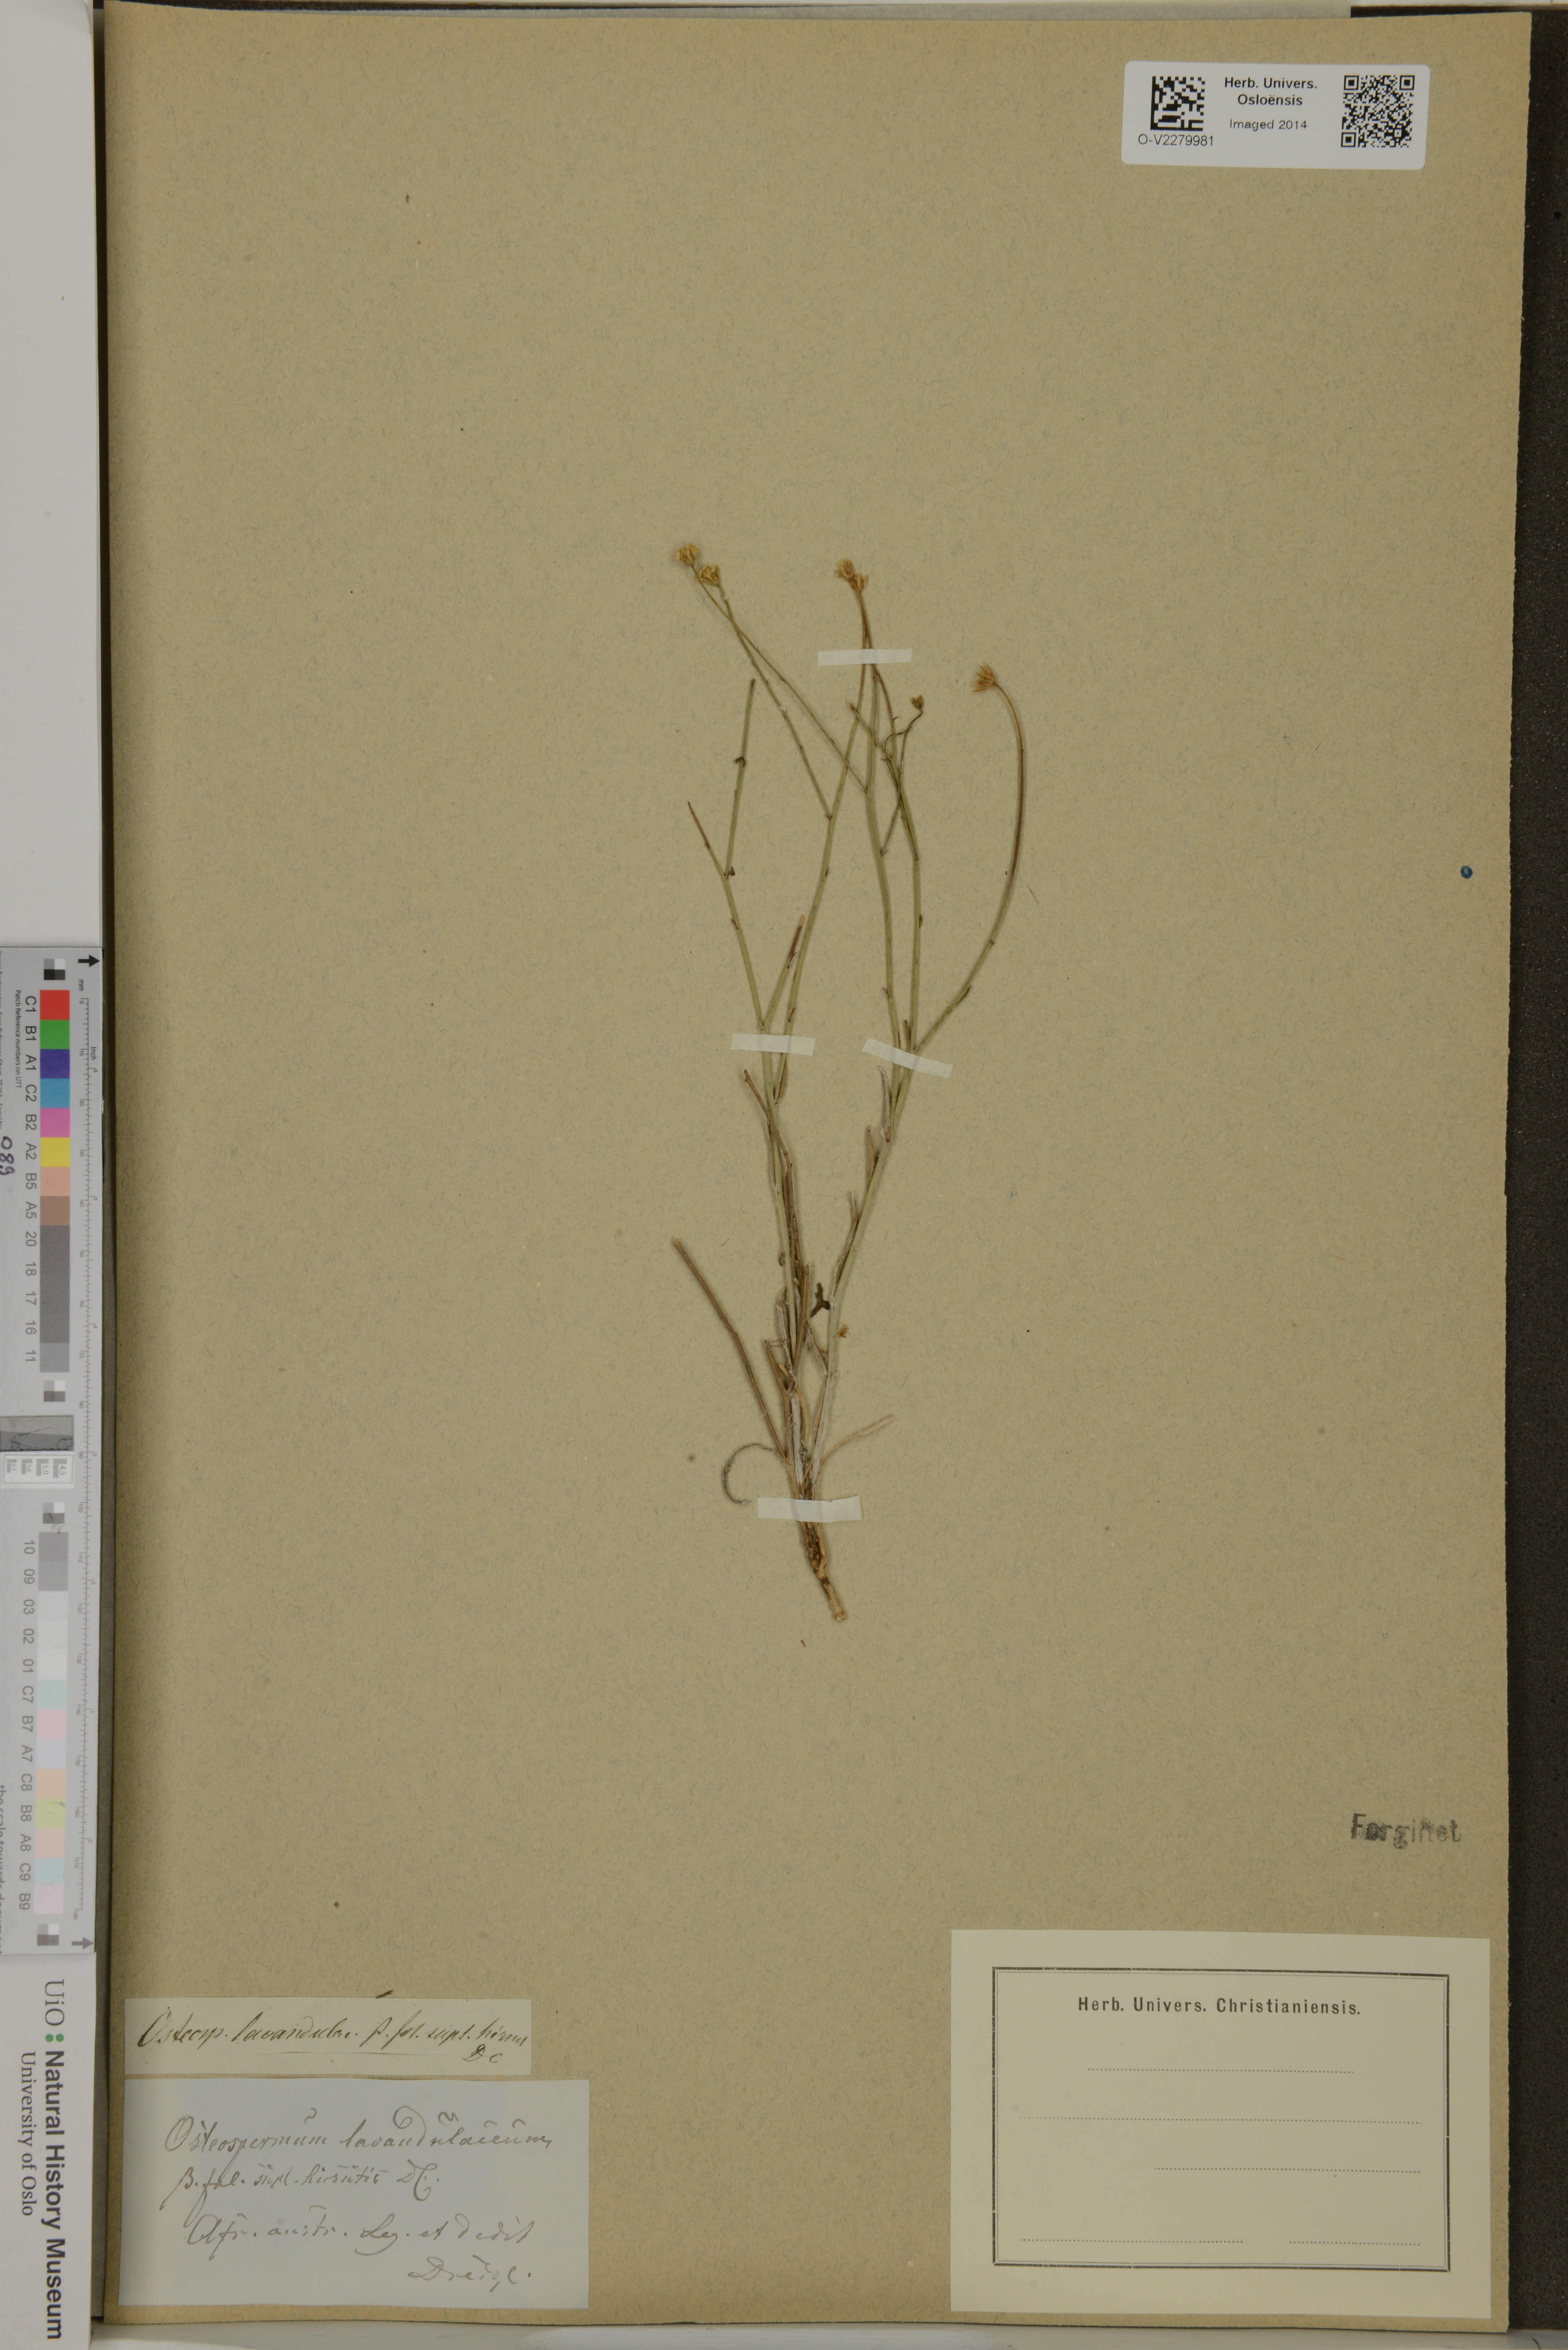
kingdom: Plantae
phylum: Tracheophyta
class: Magnoliopsida
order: Asterales
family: Asteraceae
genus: Osteospermum
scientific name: Osteospermum bidens
